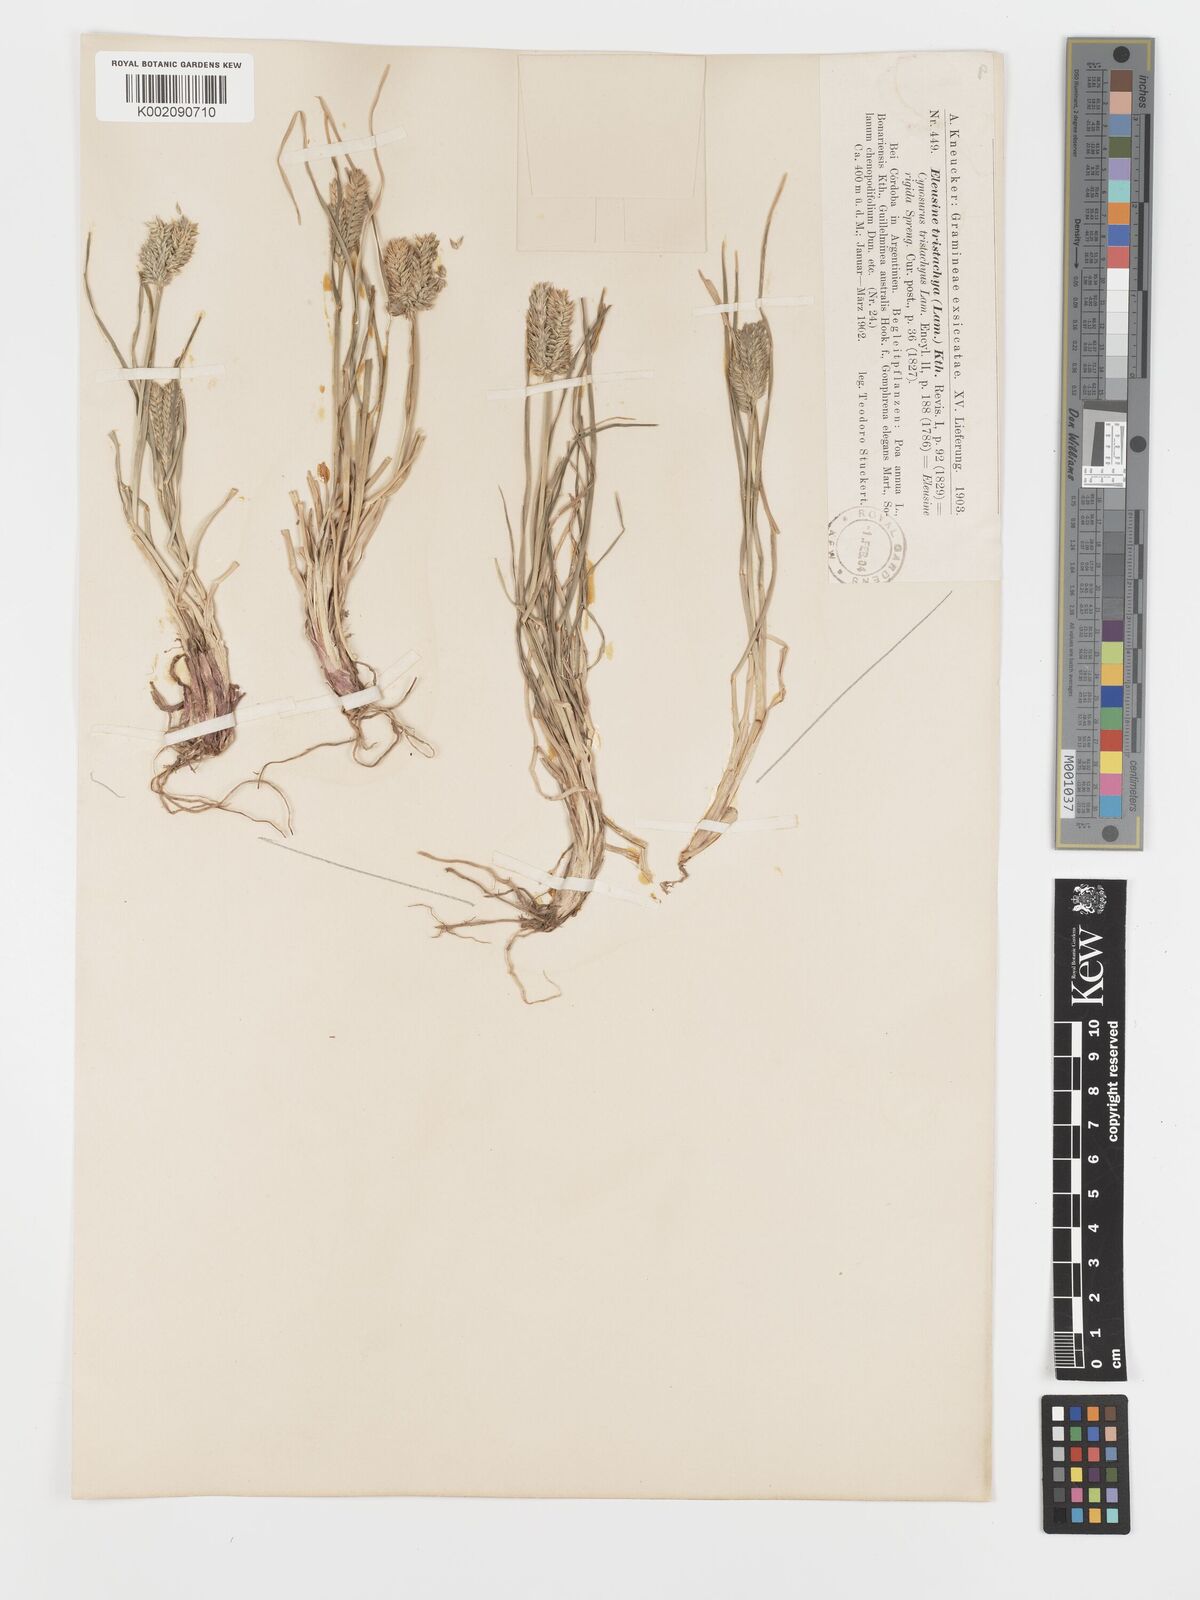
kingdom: Plantae
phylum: Tracheophyta
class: Liliopsida
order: Poales
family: Poaceae
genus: Eleusine
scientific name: Eleusine tristachya
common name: American yard-grass
